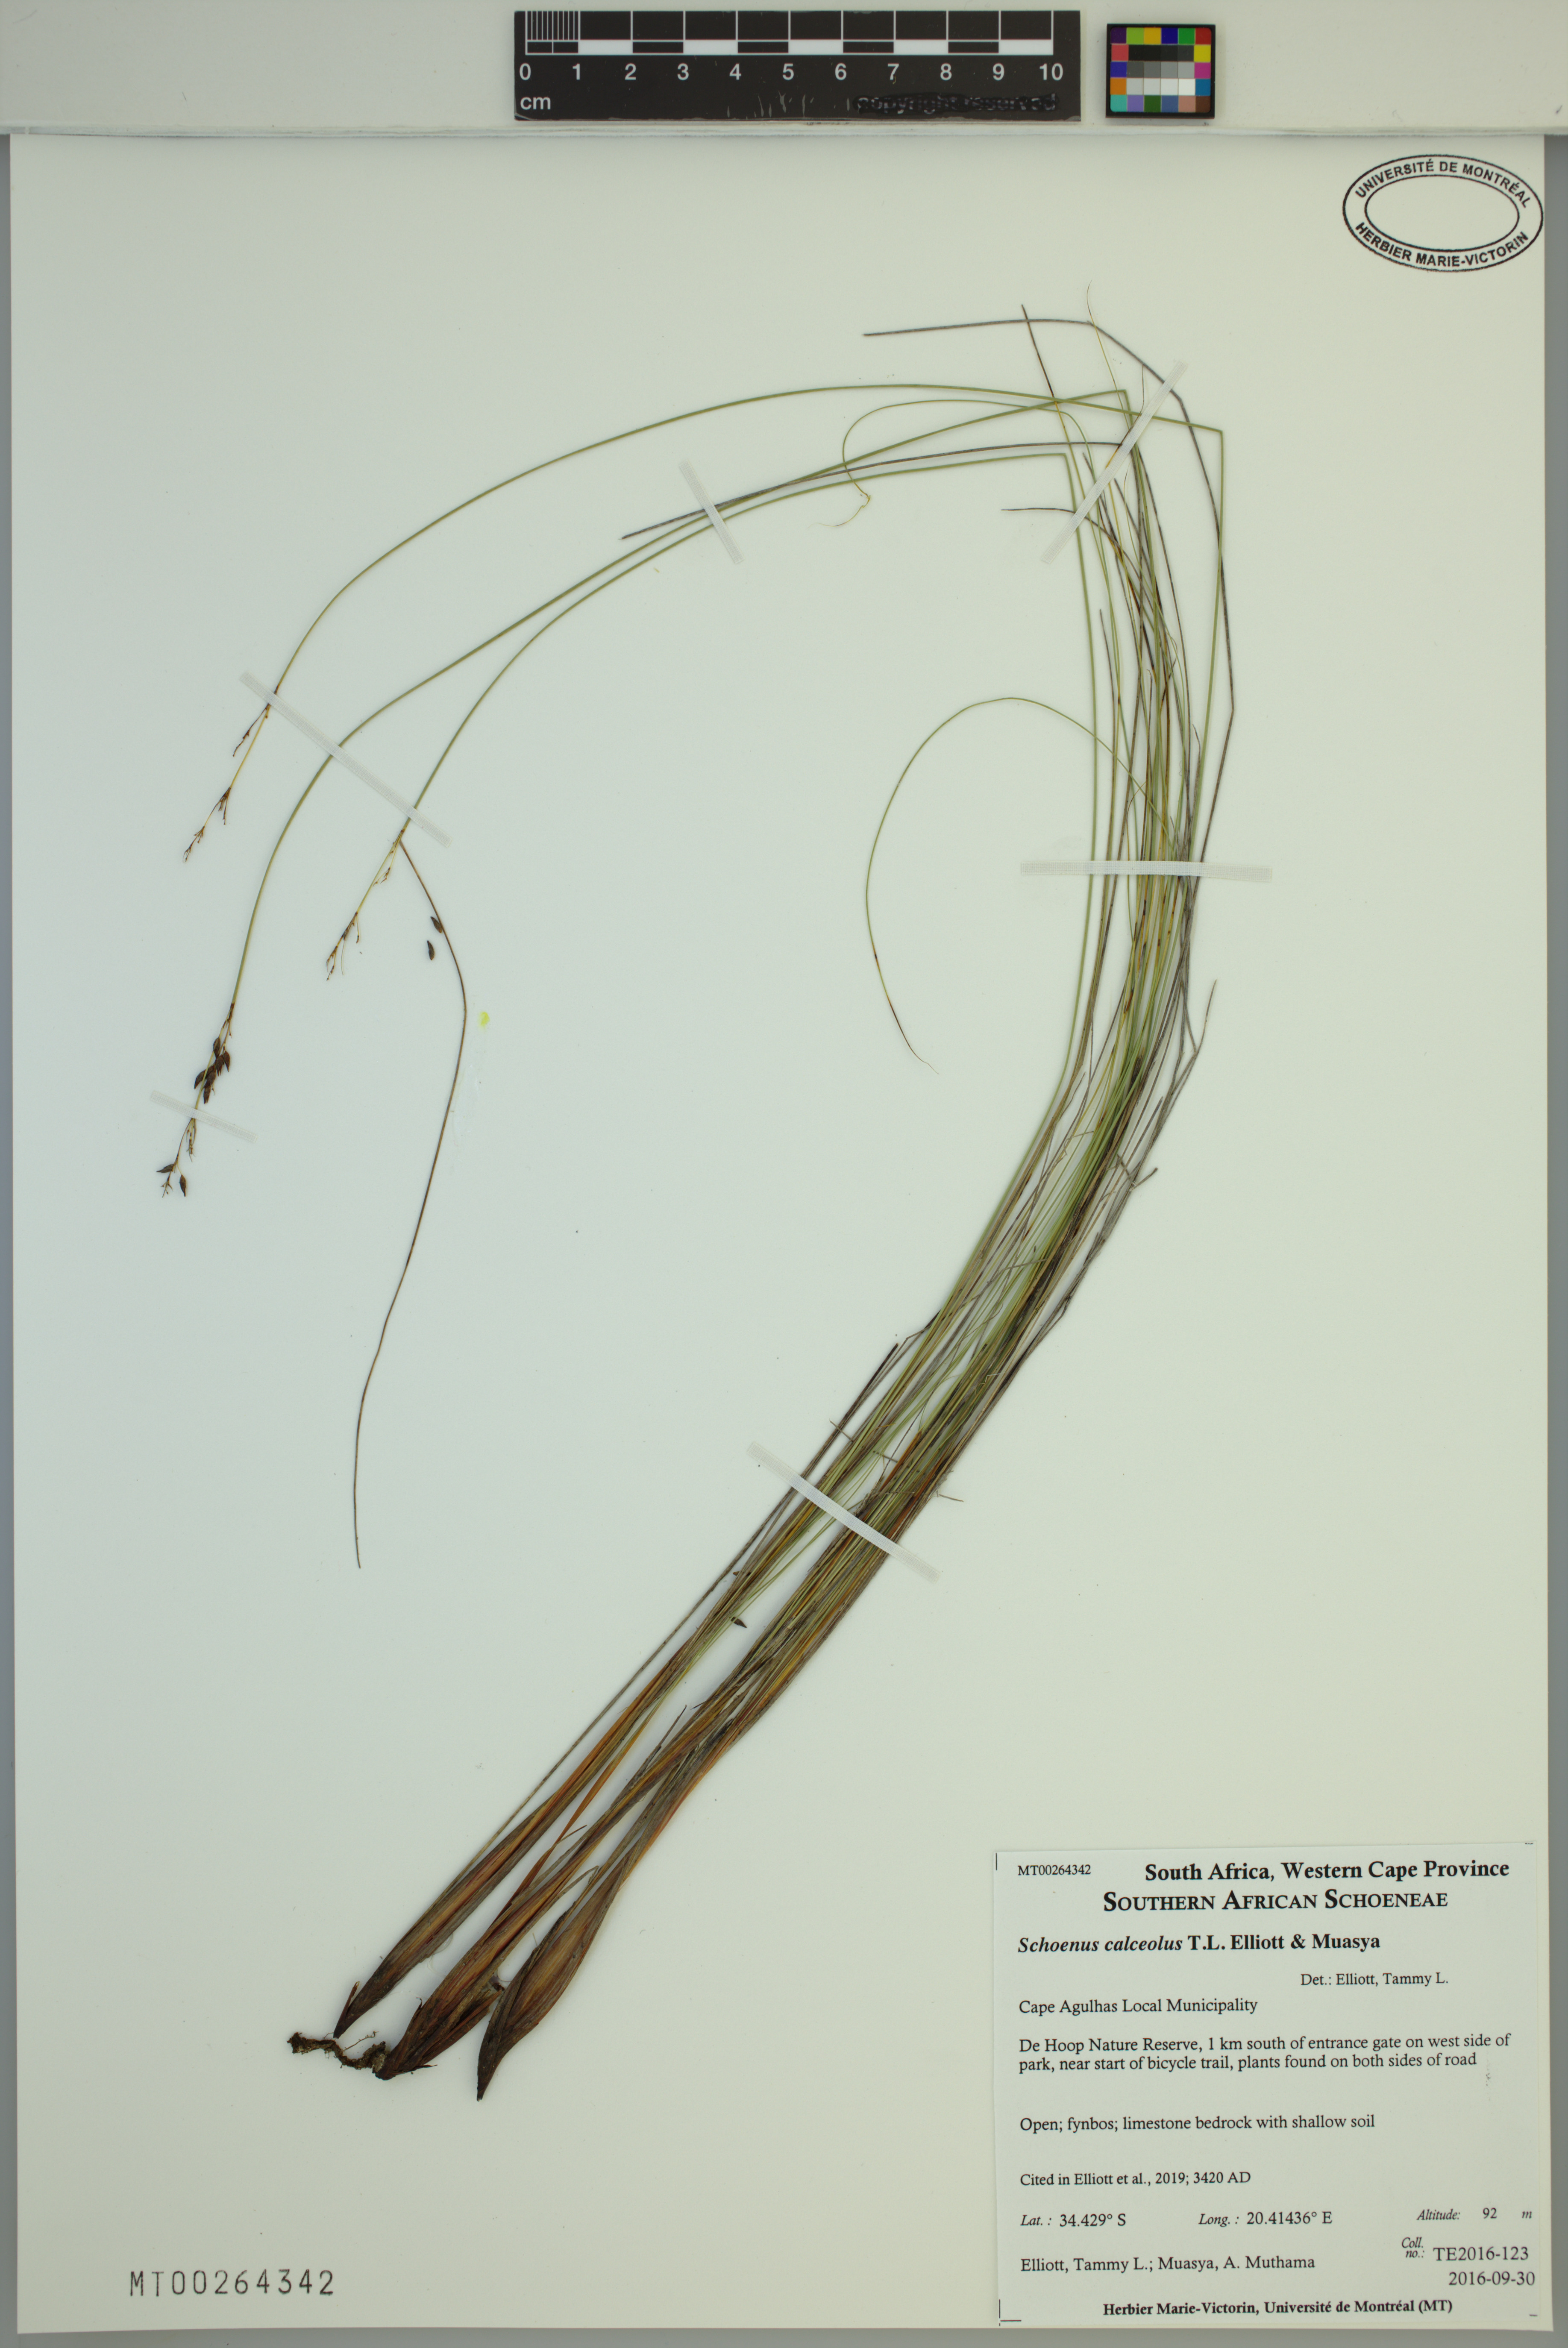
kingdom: Plantae
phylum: Tracheophyta
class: Liliopsida
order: Poales
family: Cyperaceae
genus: Schoenus
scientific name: Schoenus calceolus
